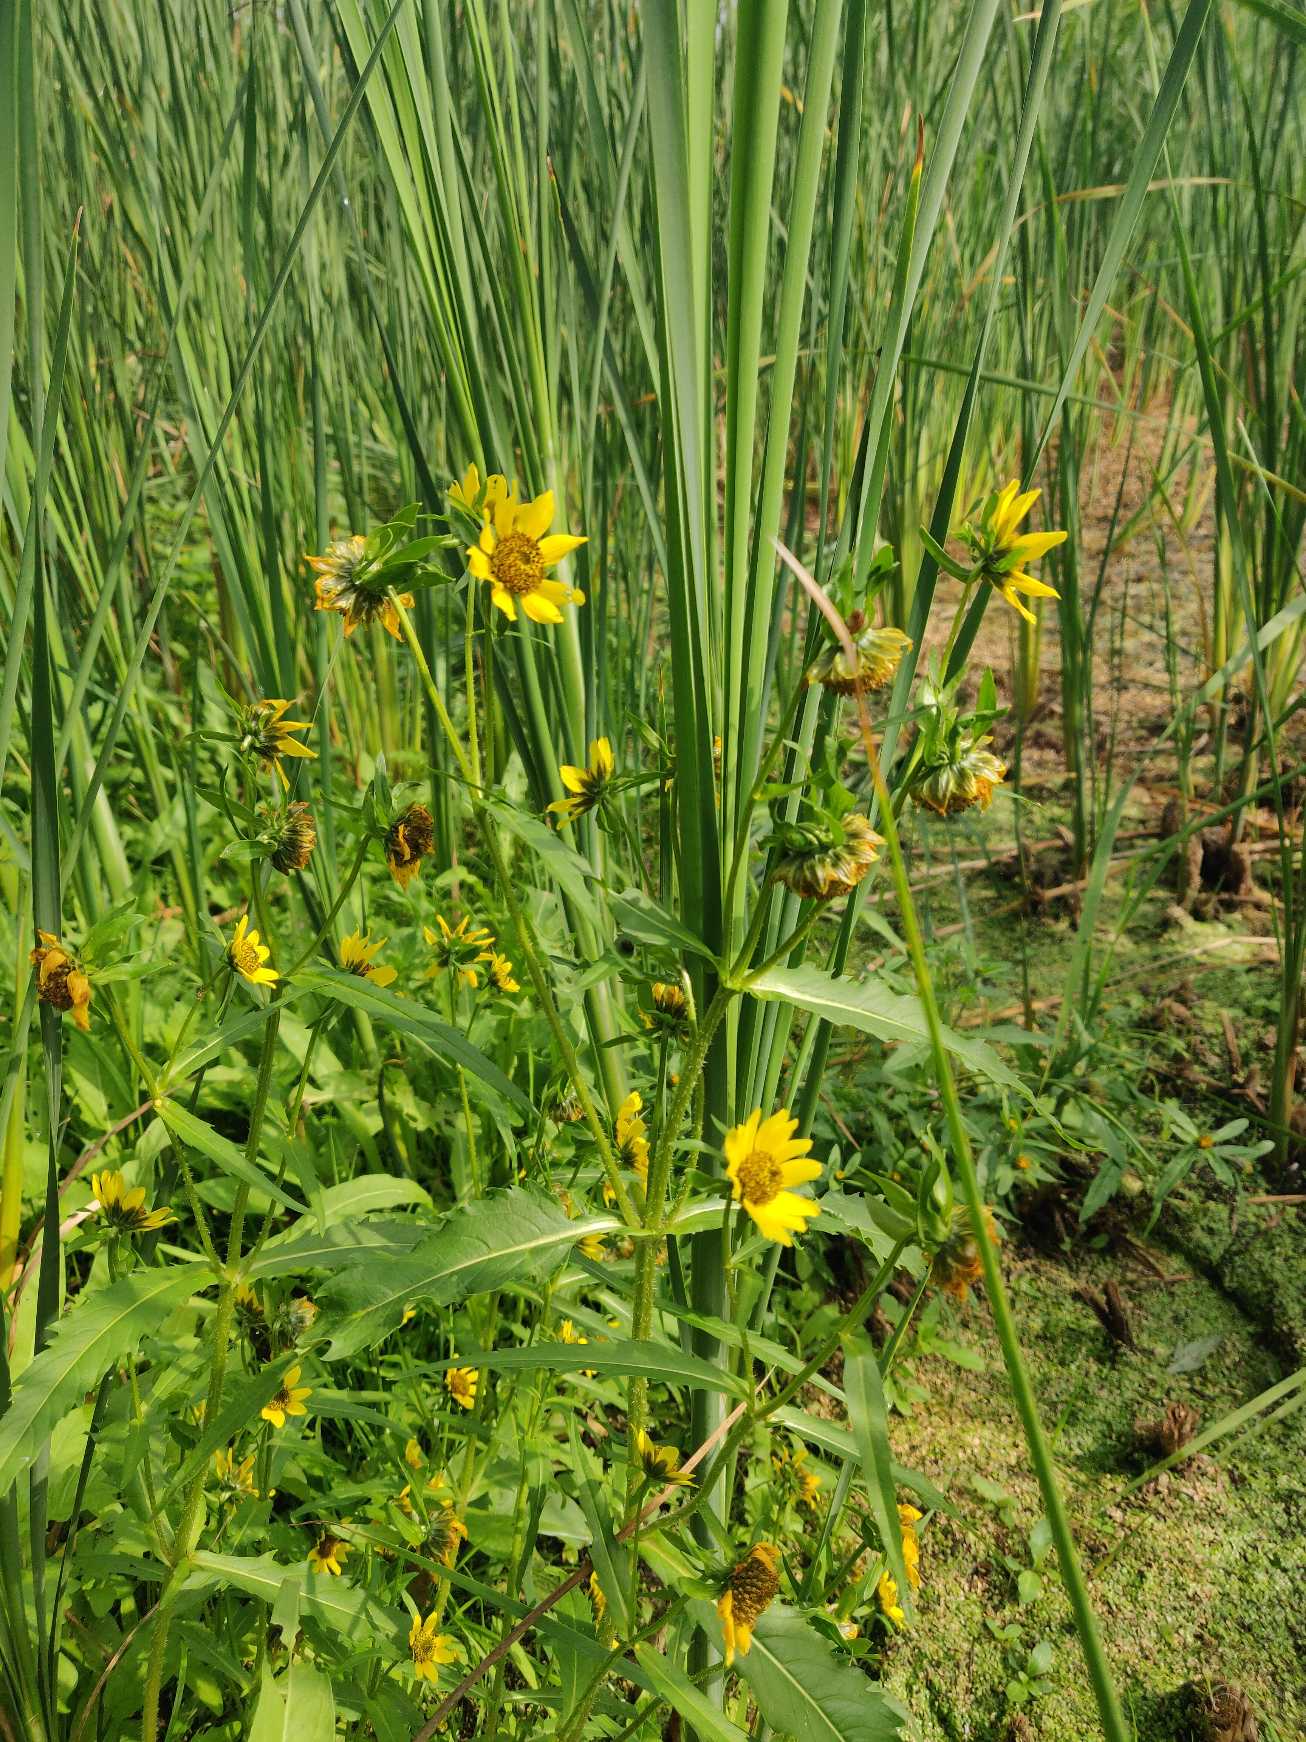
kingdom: Plantae
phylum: Tracheophyta
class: Magnoliopsida
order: Asterales
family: Asteraceae
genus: Bidens
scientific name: Bidens cernua
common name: Nikkende brøndsel
